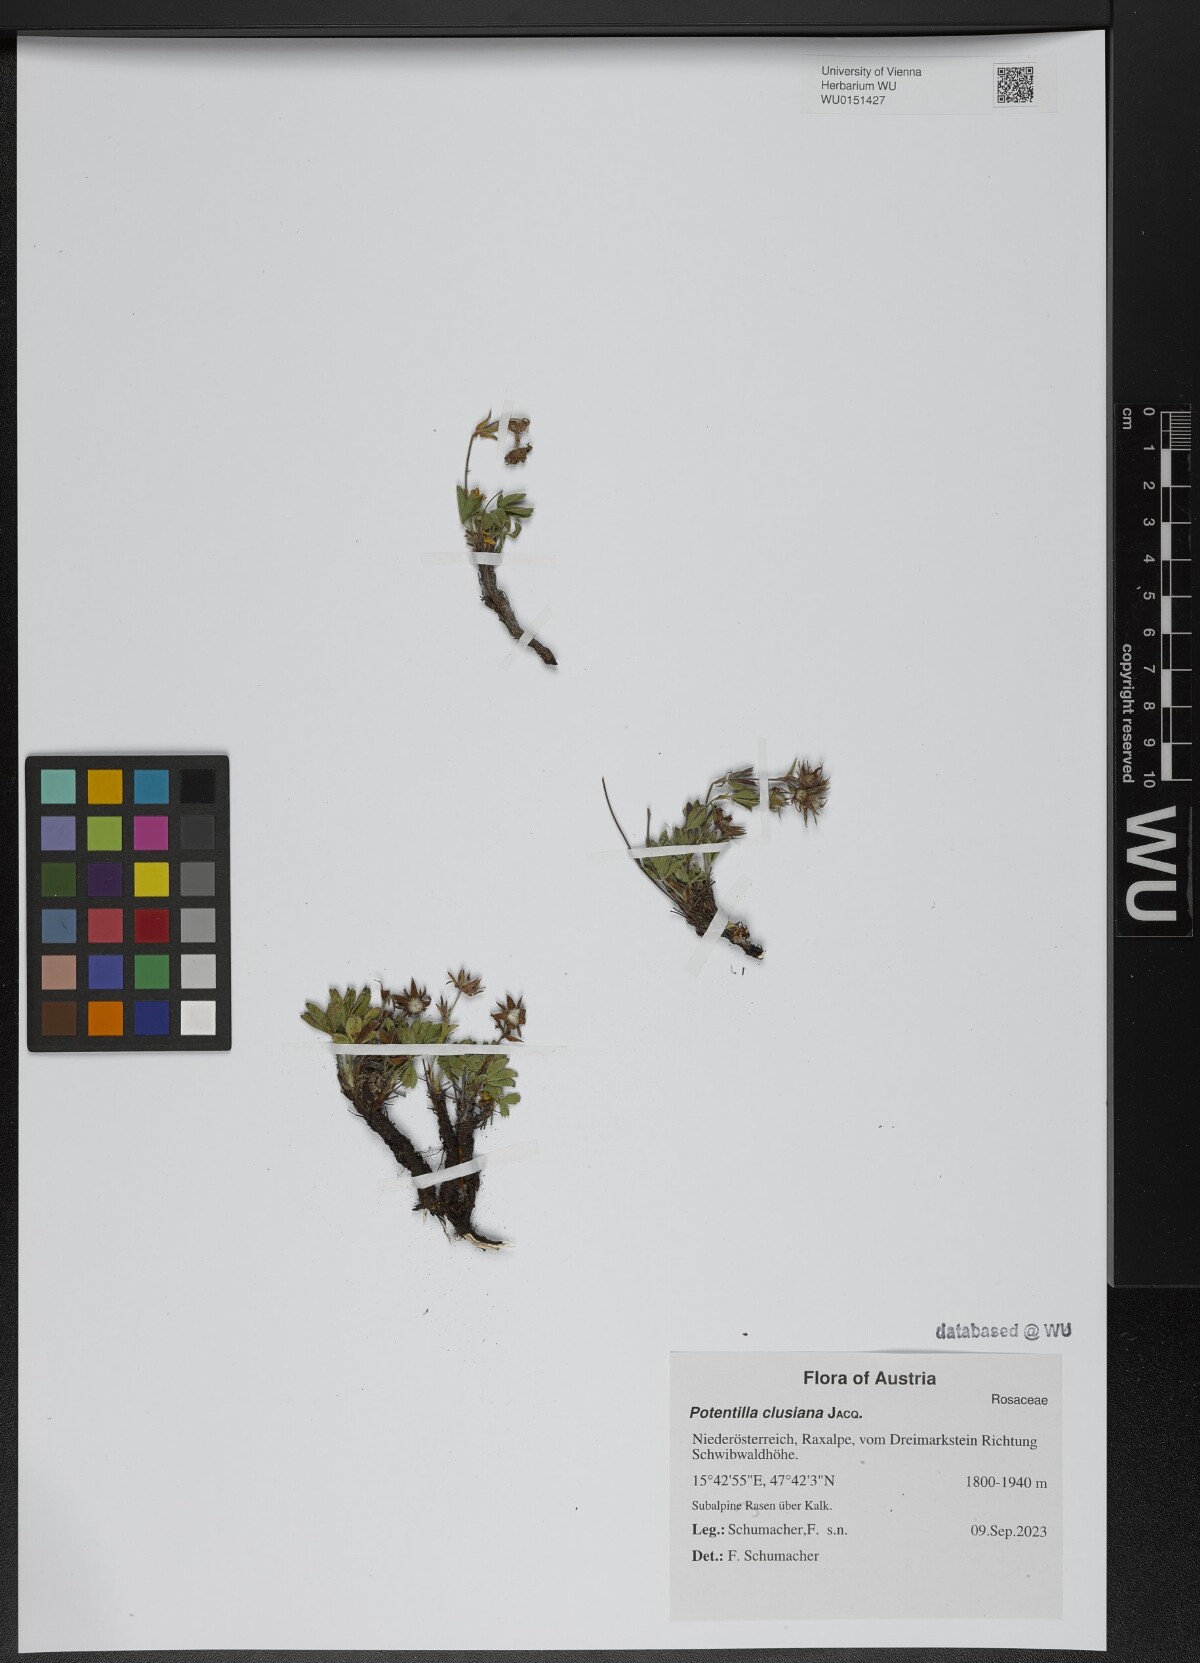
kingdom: Plantae
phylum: Tracheophyta
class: Magnoliopsida
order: Rosales
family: Rosaceae
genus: Potentilla
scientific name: Potentilla clusiana
